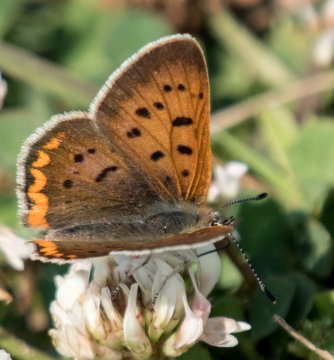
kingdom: Animalia
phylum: Arthropoda
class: Insecta
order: Lepidoptera
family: Sesiidae
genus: Sesia
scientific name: Sesia Lycaena helloides
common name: Purplish Copper
